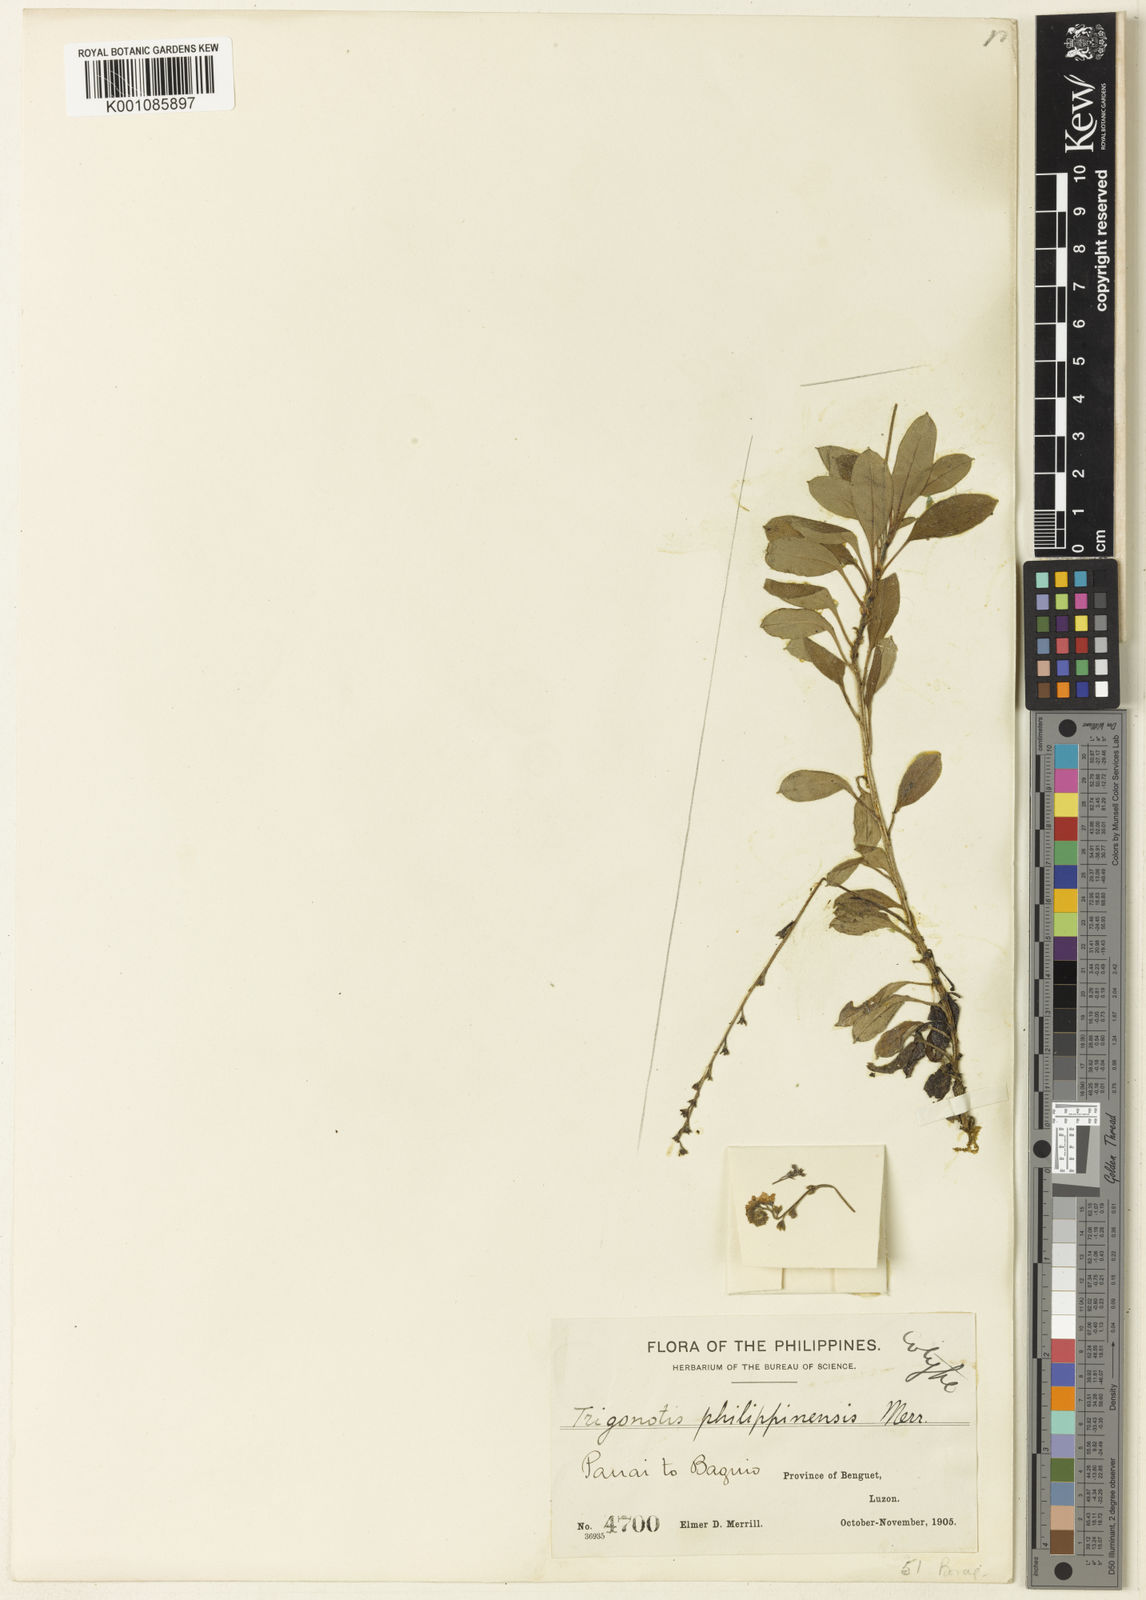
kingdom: Plantae
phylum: Tracheophyta
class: Magnoliopsida
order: Boraginales
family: Boraginaceae
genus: Trigonotis
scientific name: Trigonotis philippinensis
